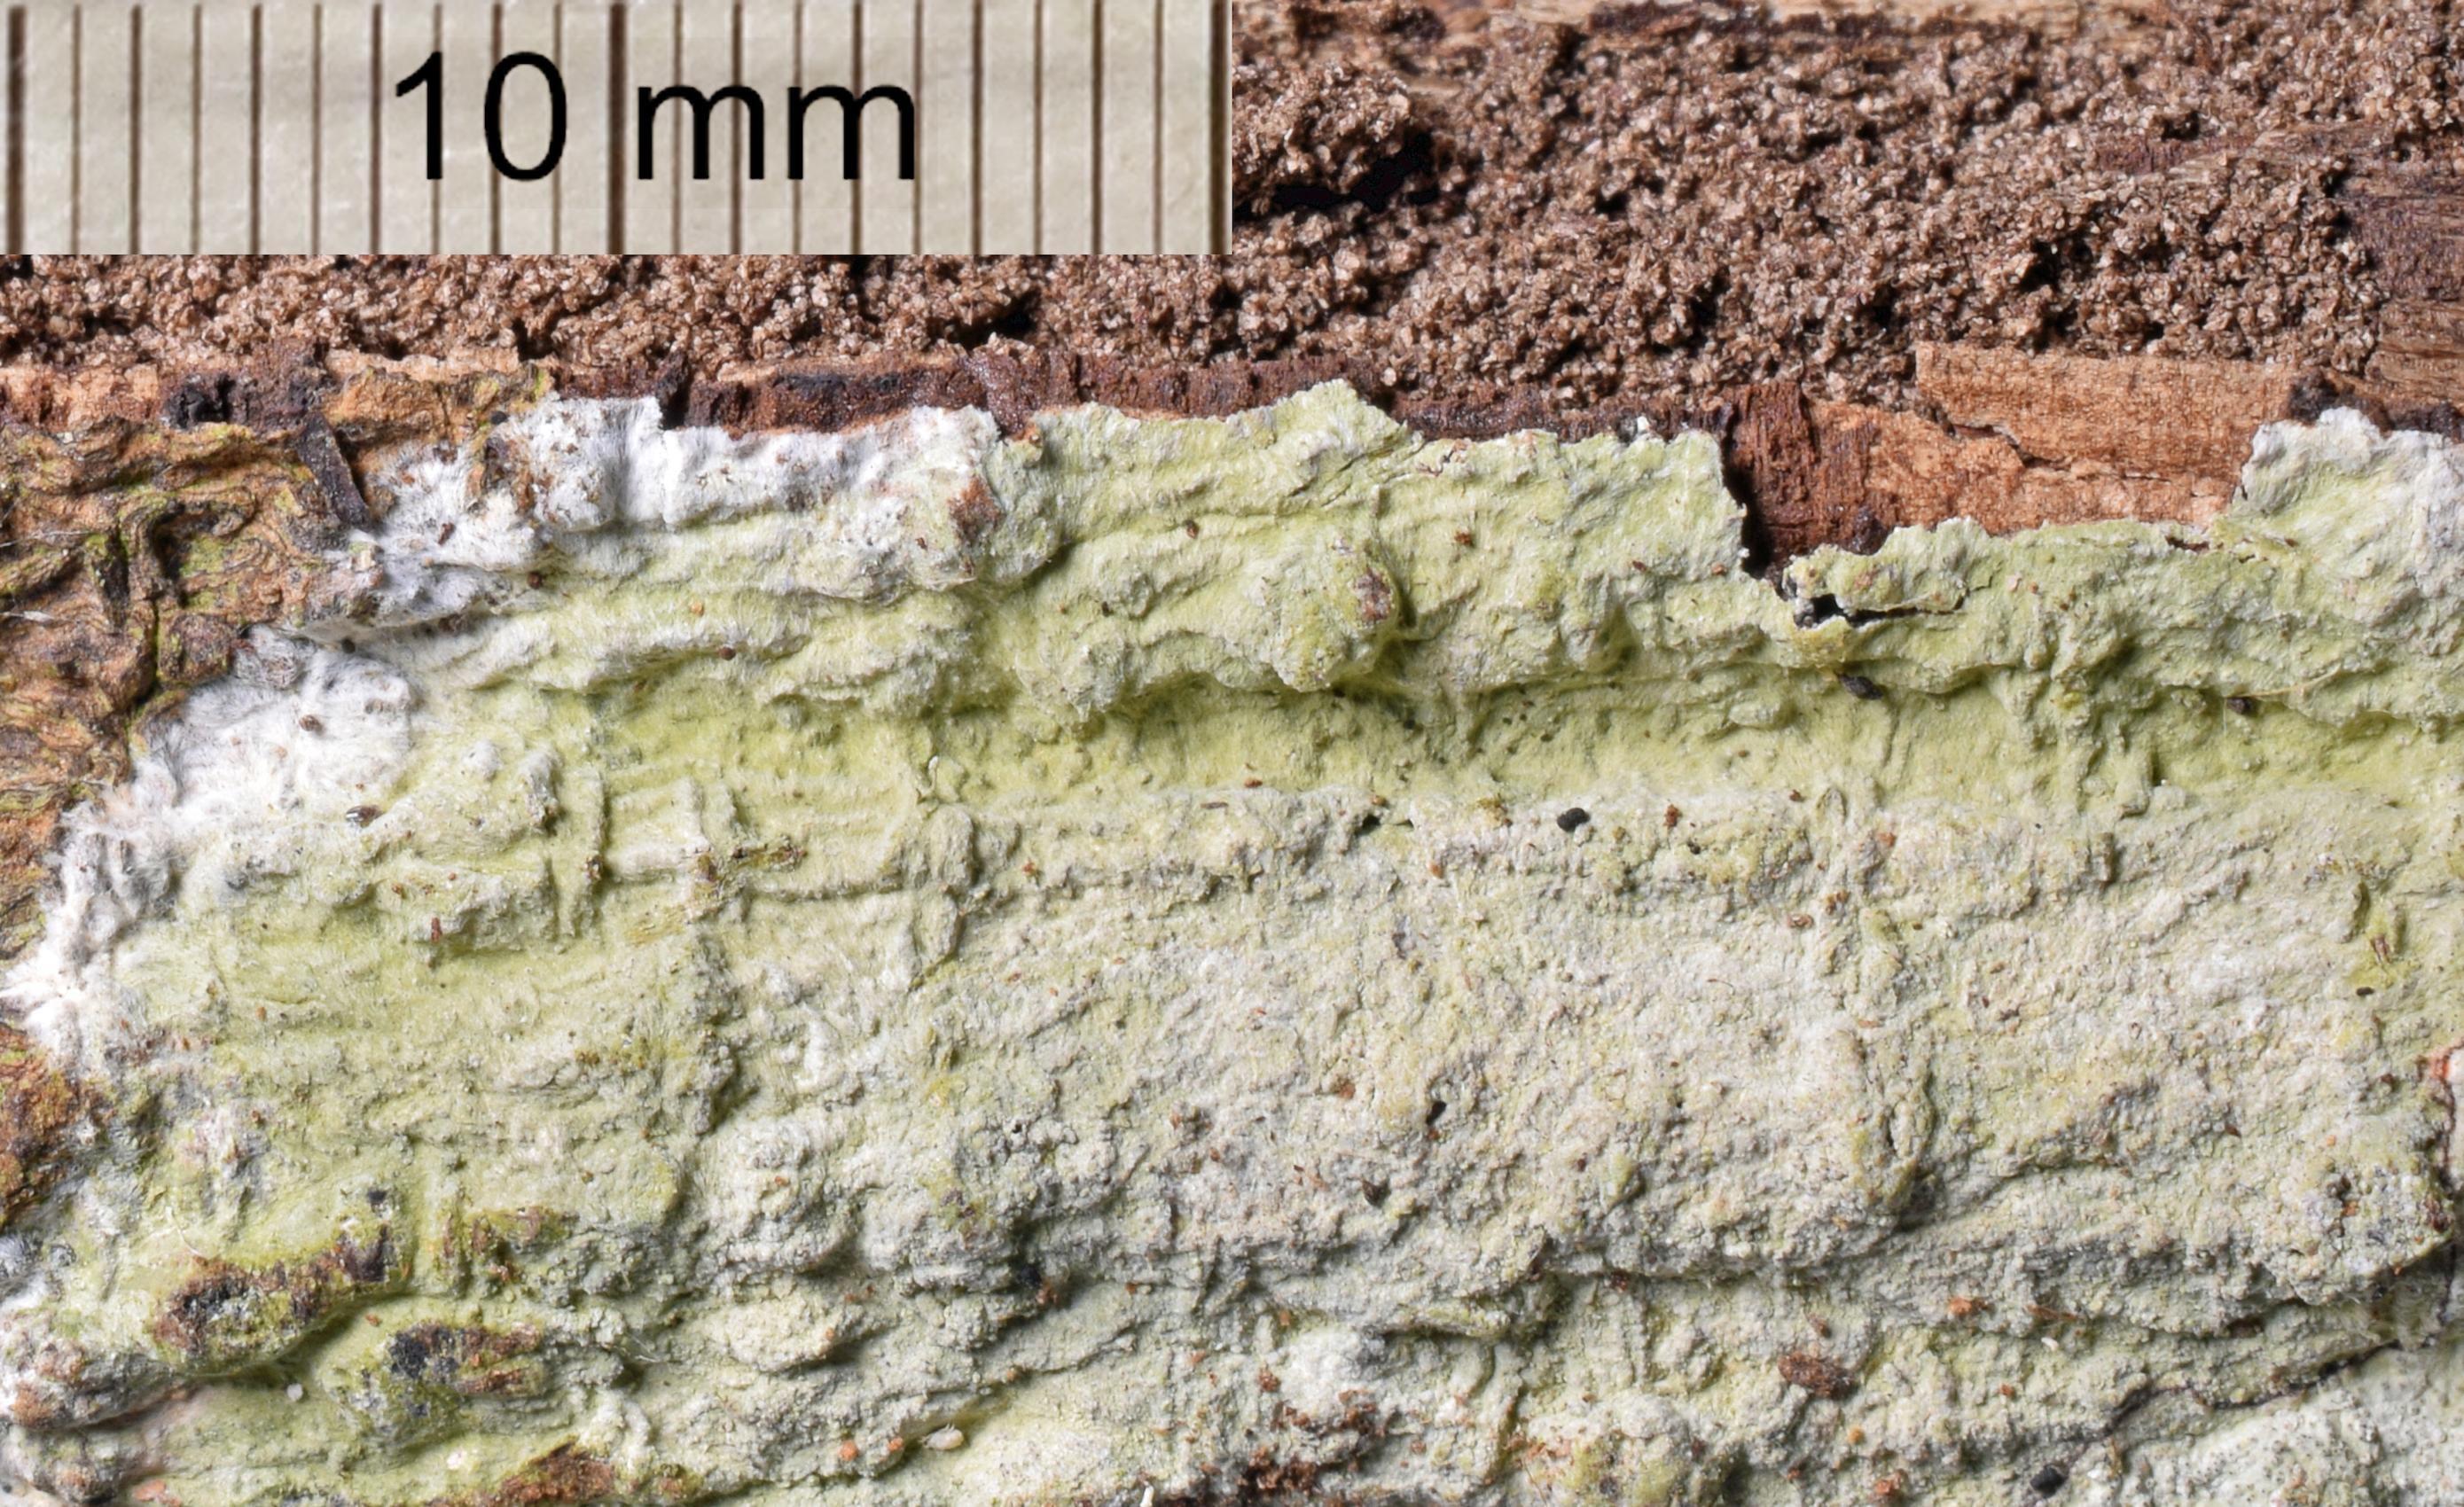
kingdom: Fungi
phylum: Ascomycota
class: Arthoniomycetes
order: Arthoniales
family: Arthoniaceae
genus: Cryptothecia
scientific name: Cryptothecia
